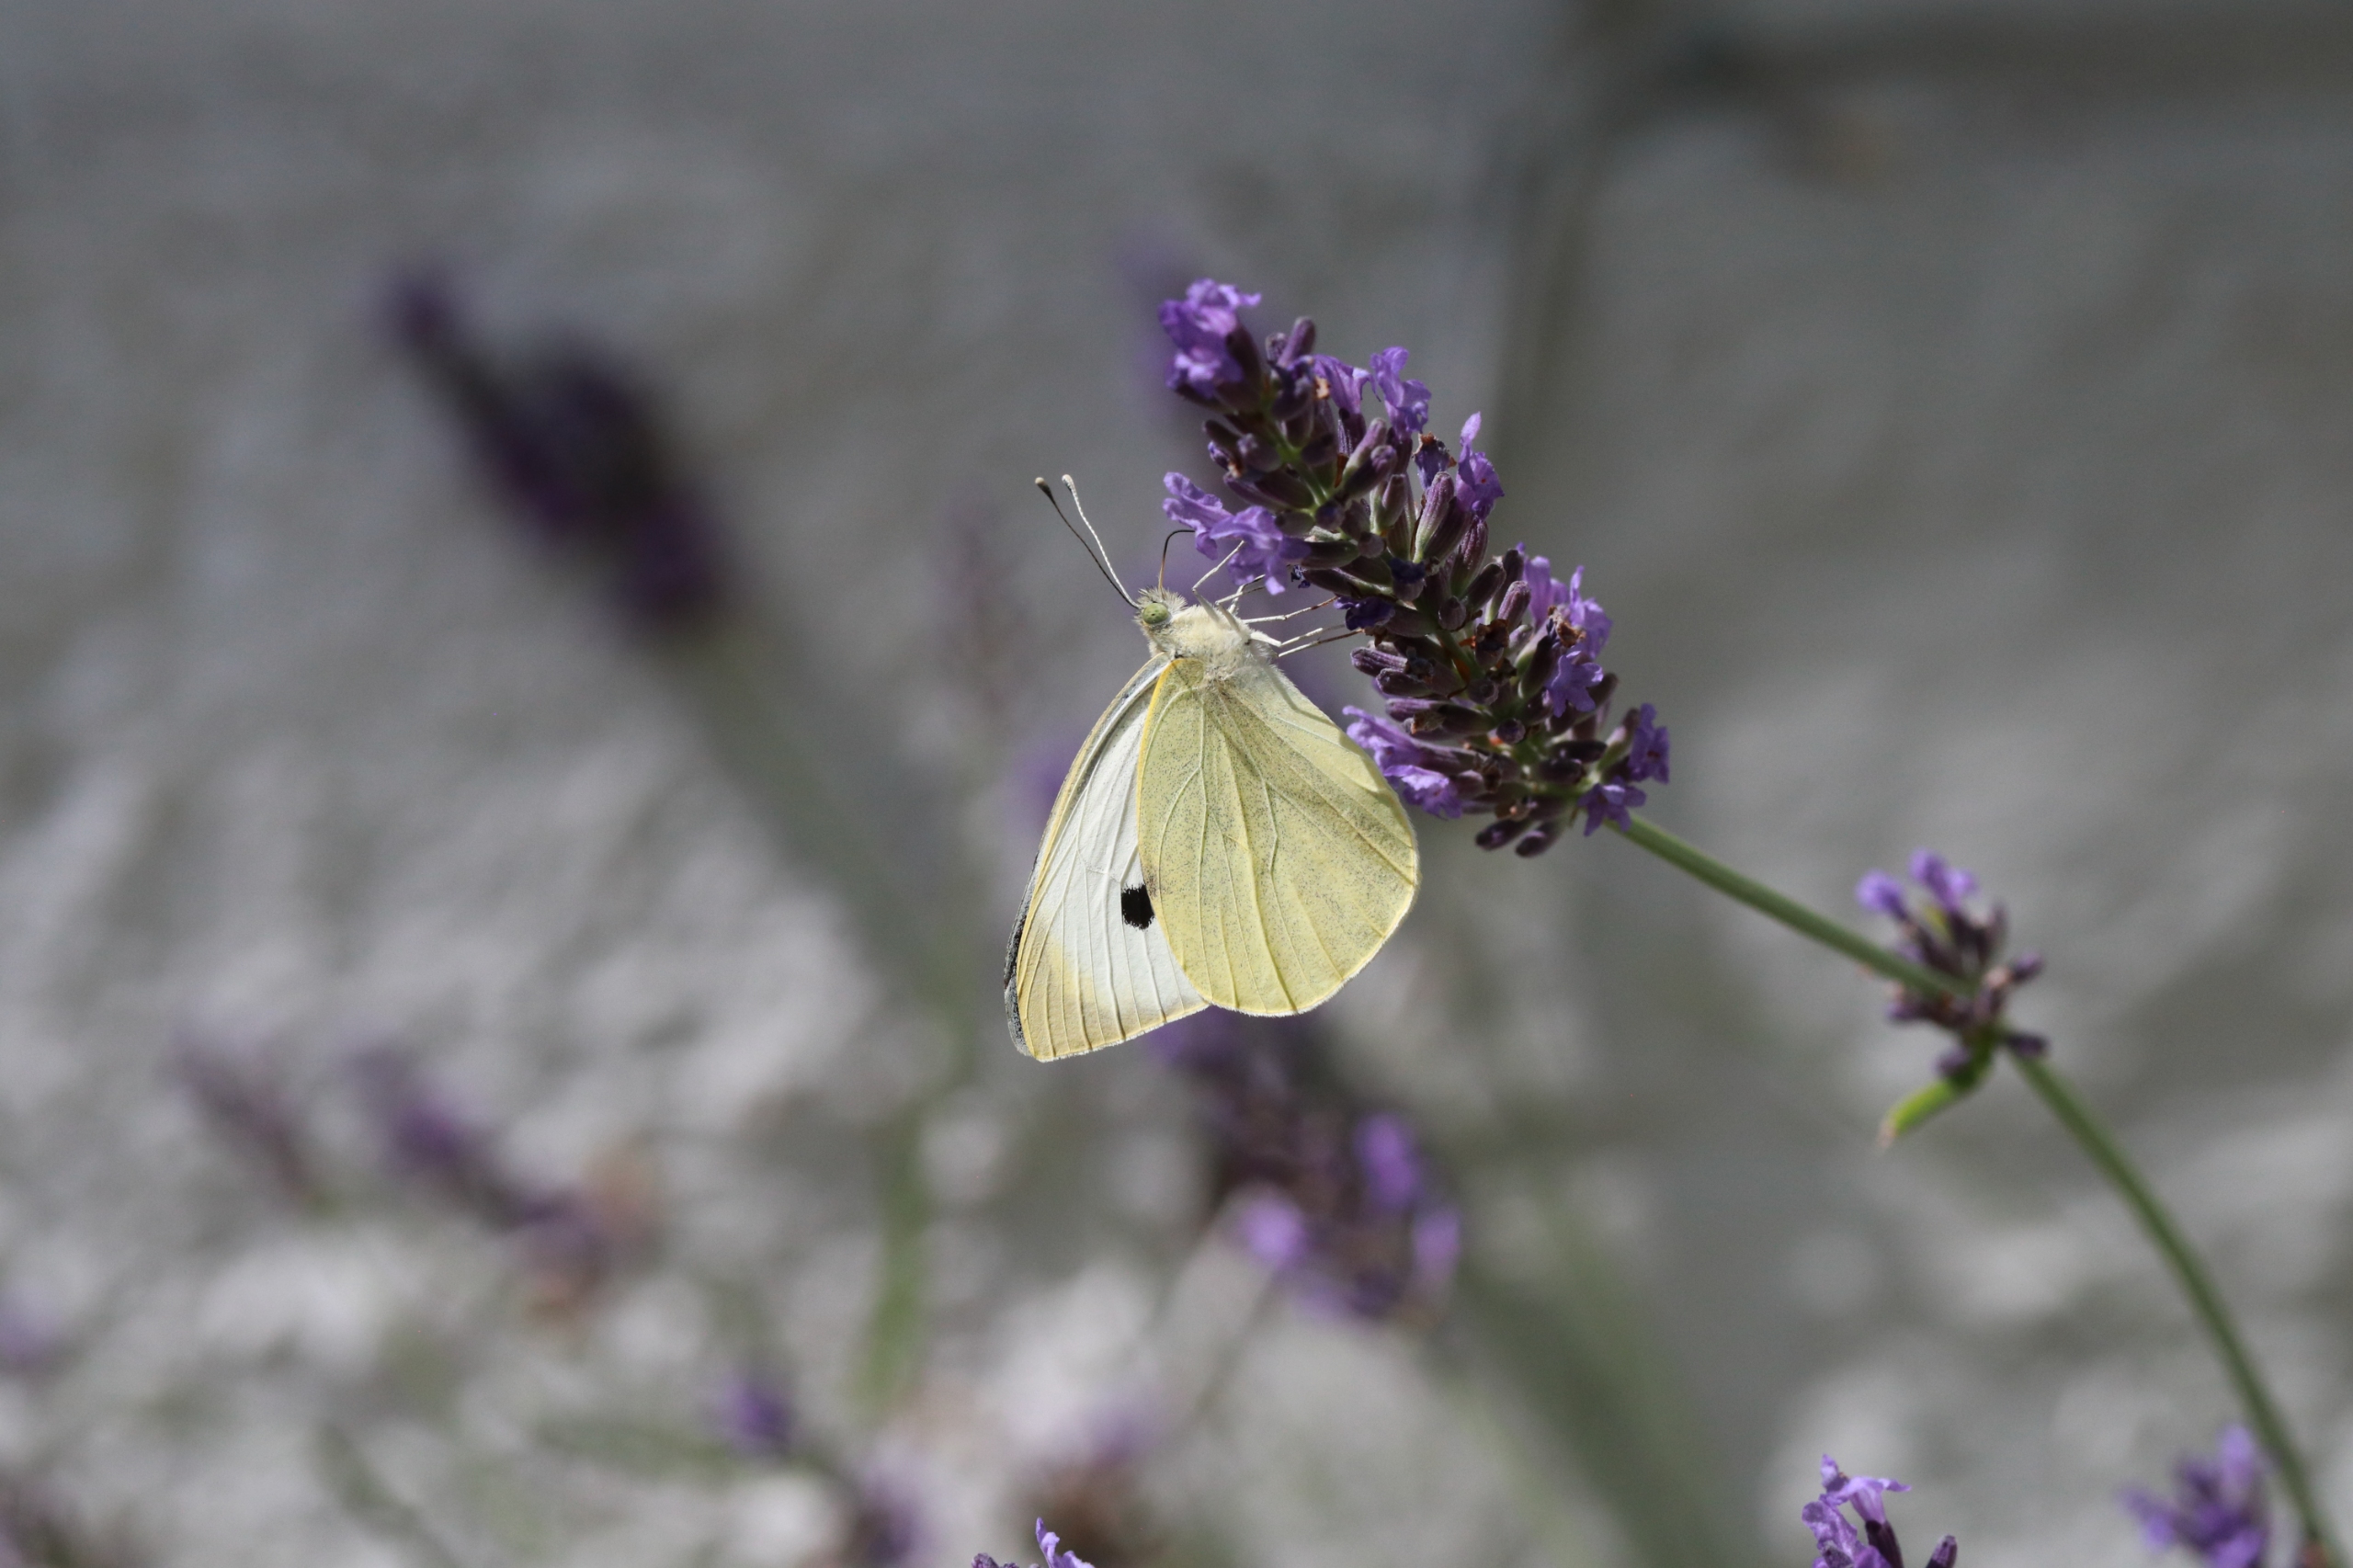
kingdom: Animalia
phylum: Arthropoda
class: Insecta
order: Lepidoptera
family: Pieridae
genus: Pieris
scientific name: Pieris brassicae
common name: Stor kålsommerfugl
